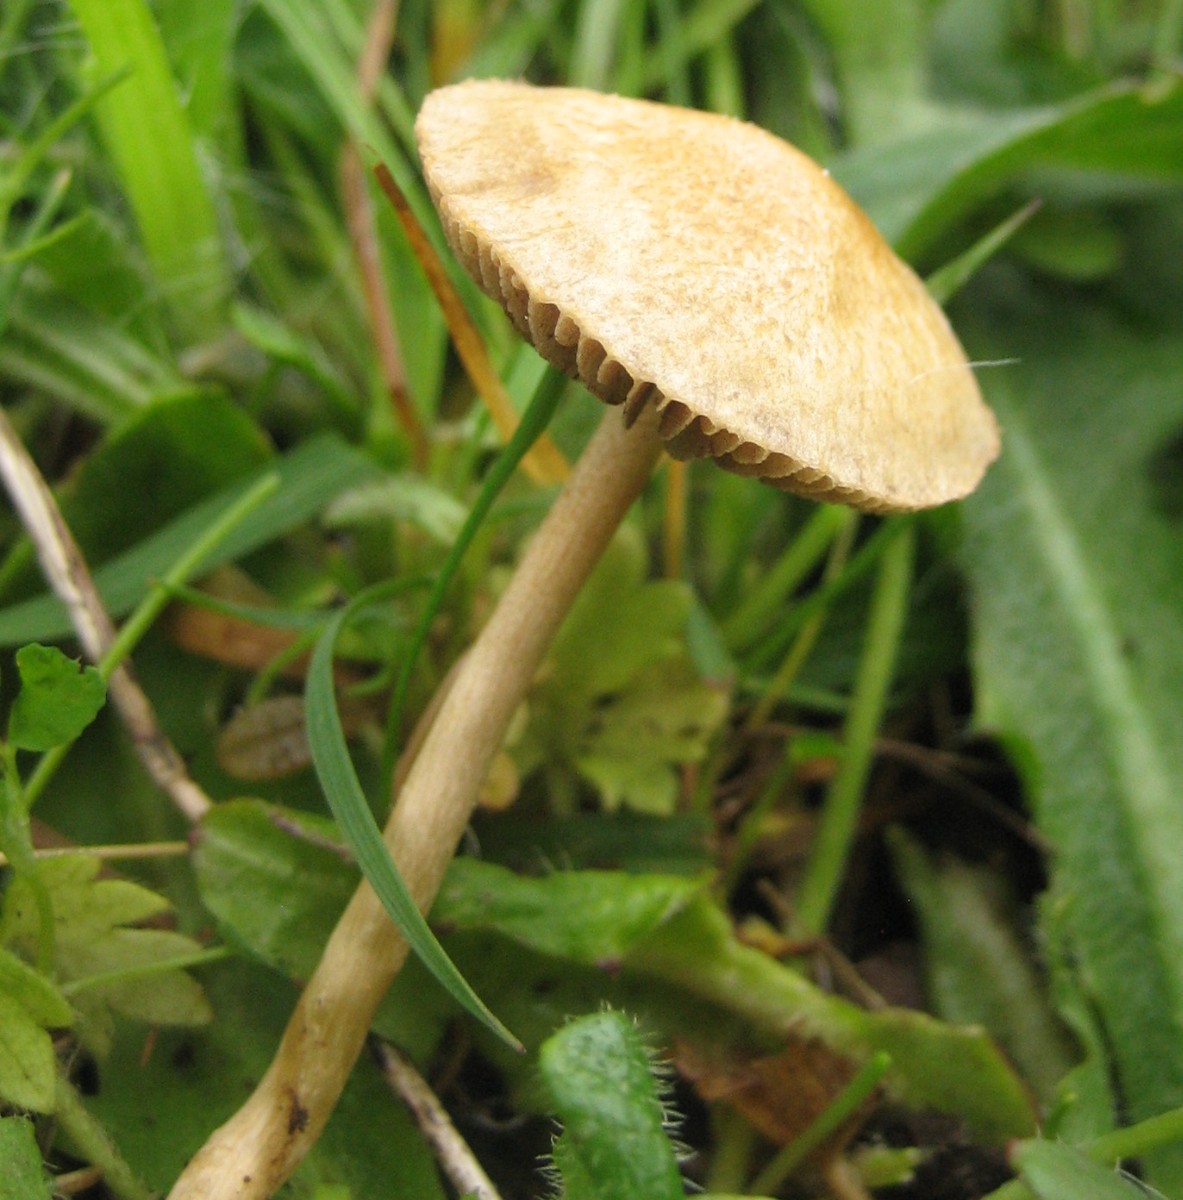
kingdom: Fungi
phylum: Basidiomycota
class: Agaricomycetes
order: Agaricales
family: Strophariaceae
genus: Agrocybe
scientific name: Agrocybe pediades
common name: almindelig agerhat
